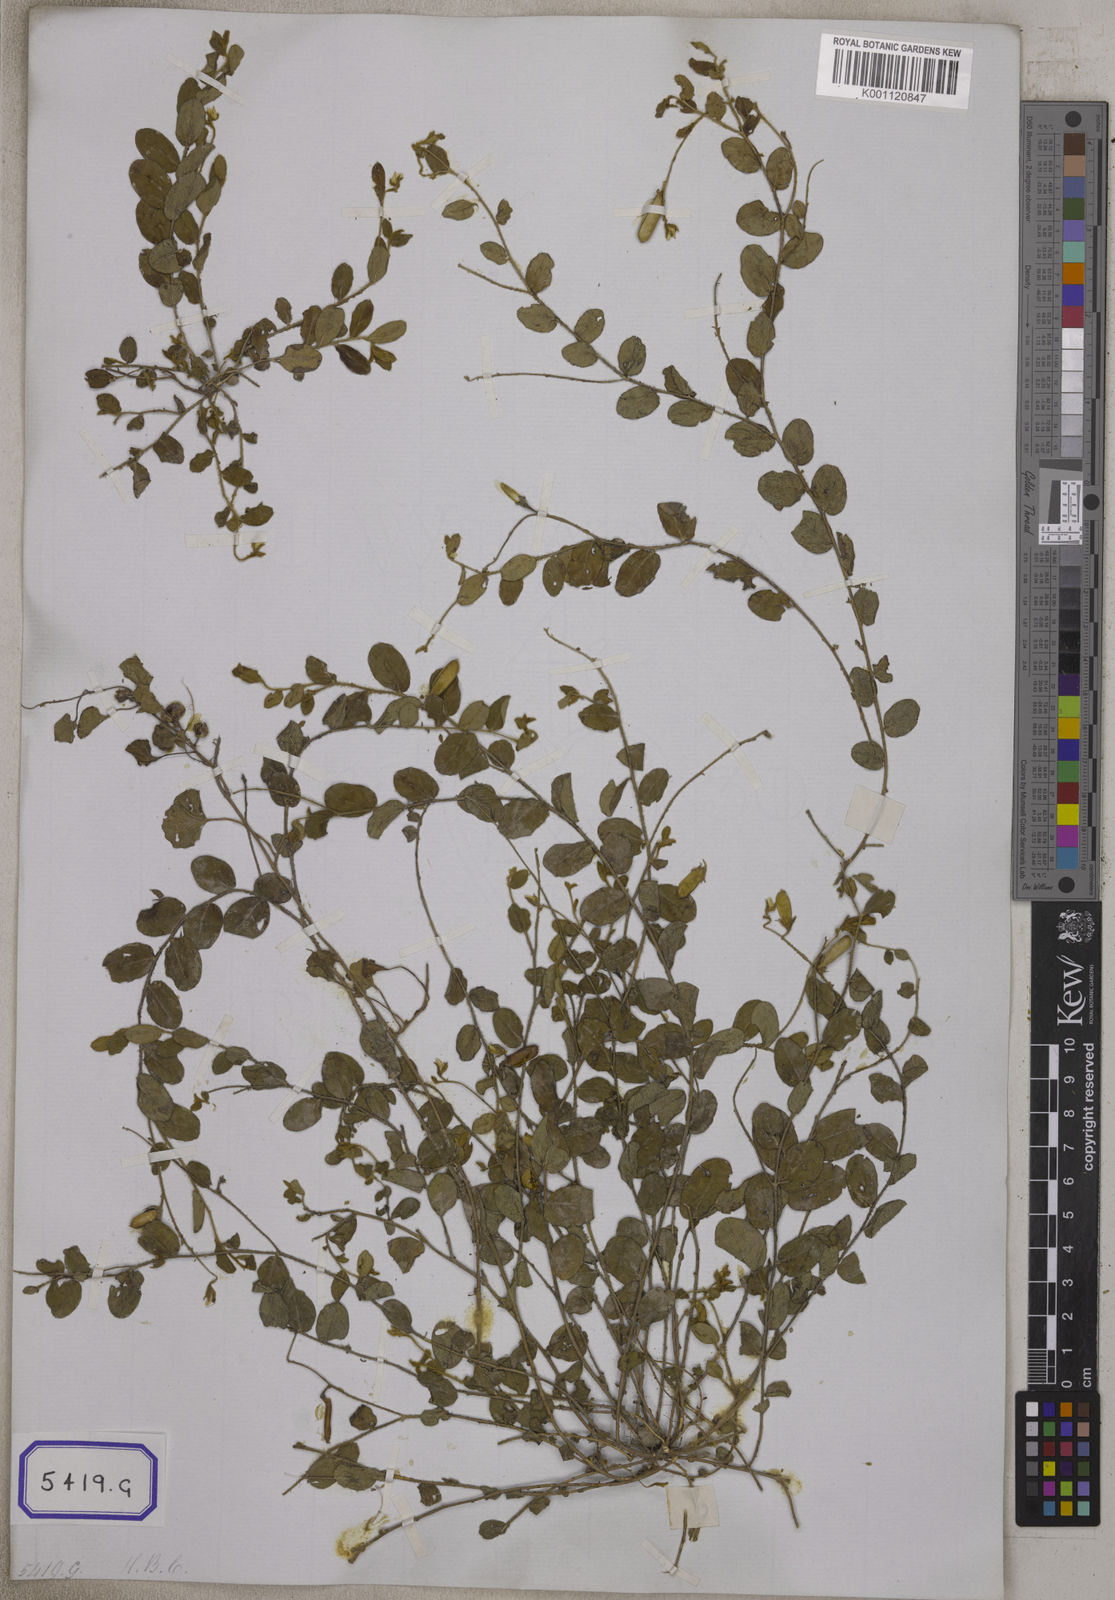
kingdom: Plantae
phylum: Tracheophyta
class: Magnoliopsida
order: Fabales
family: Fabaceae
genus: Crotalaria
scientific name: Crotalaria
